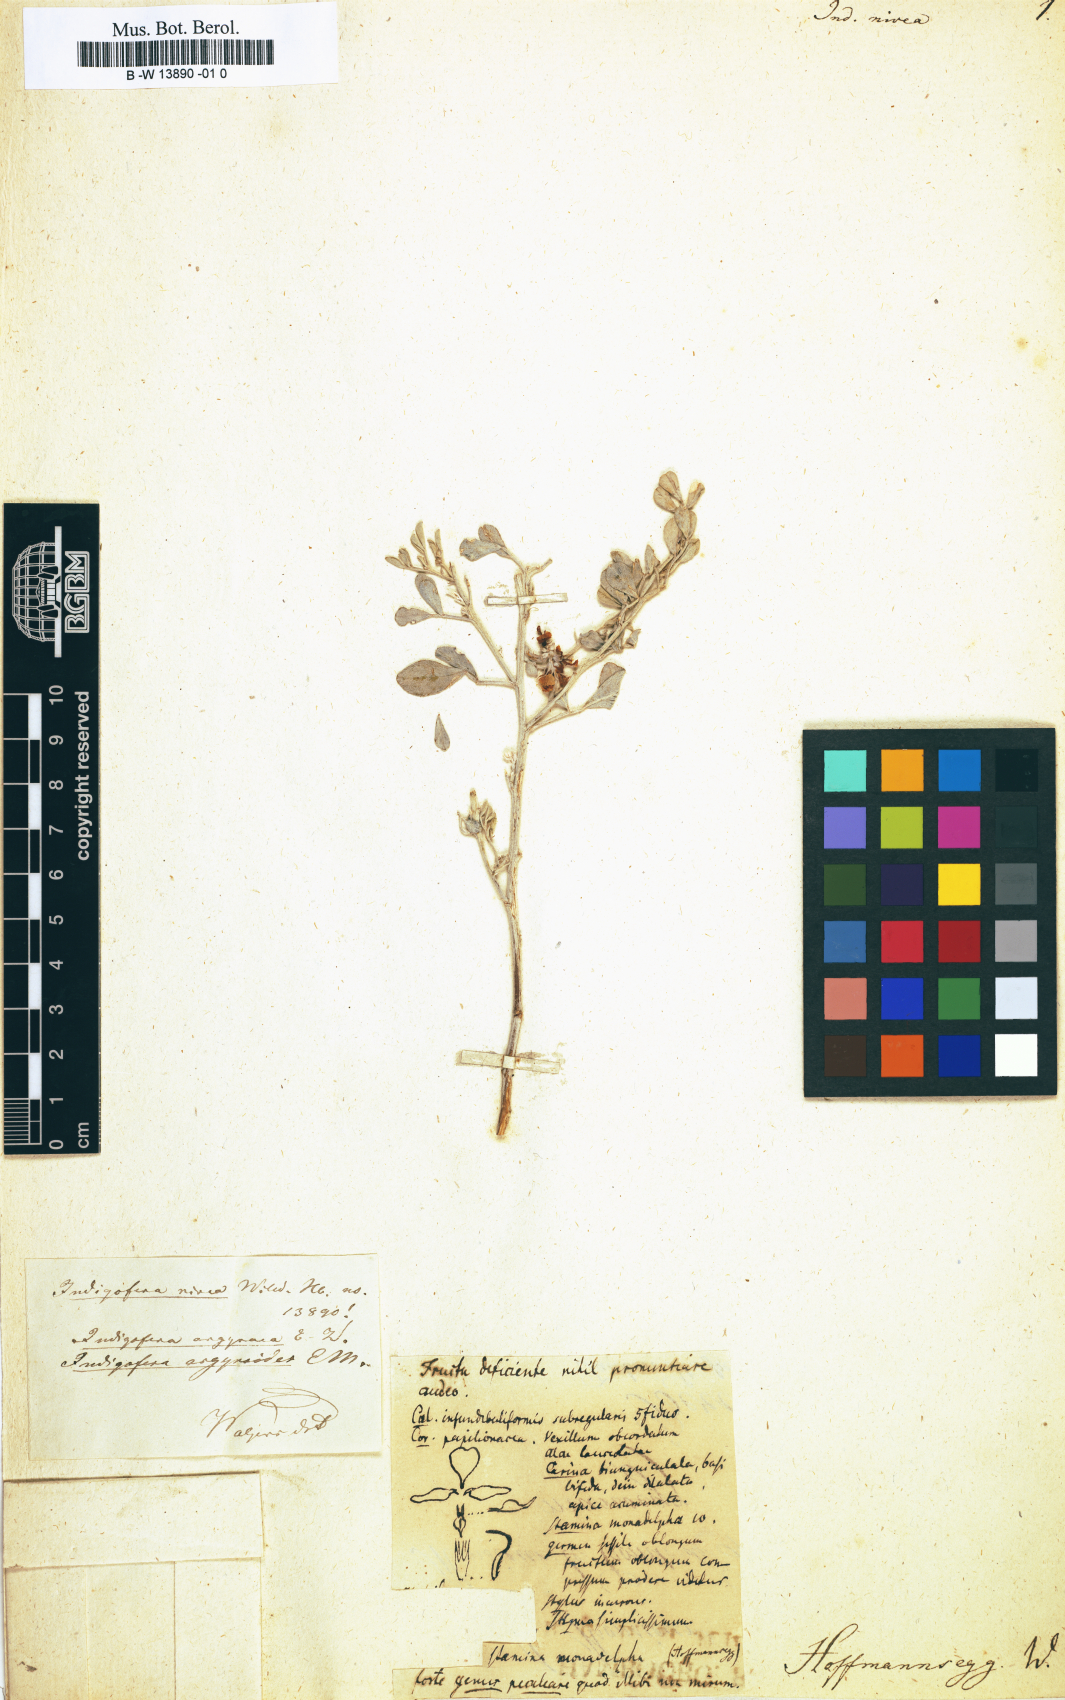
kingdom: Plantae
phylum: Tracheophyta
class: Magnoliopsida
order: Fabales
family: Fabaceae
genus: Indigofera
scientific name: Indigofera glomerata
